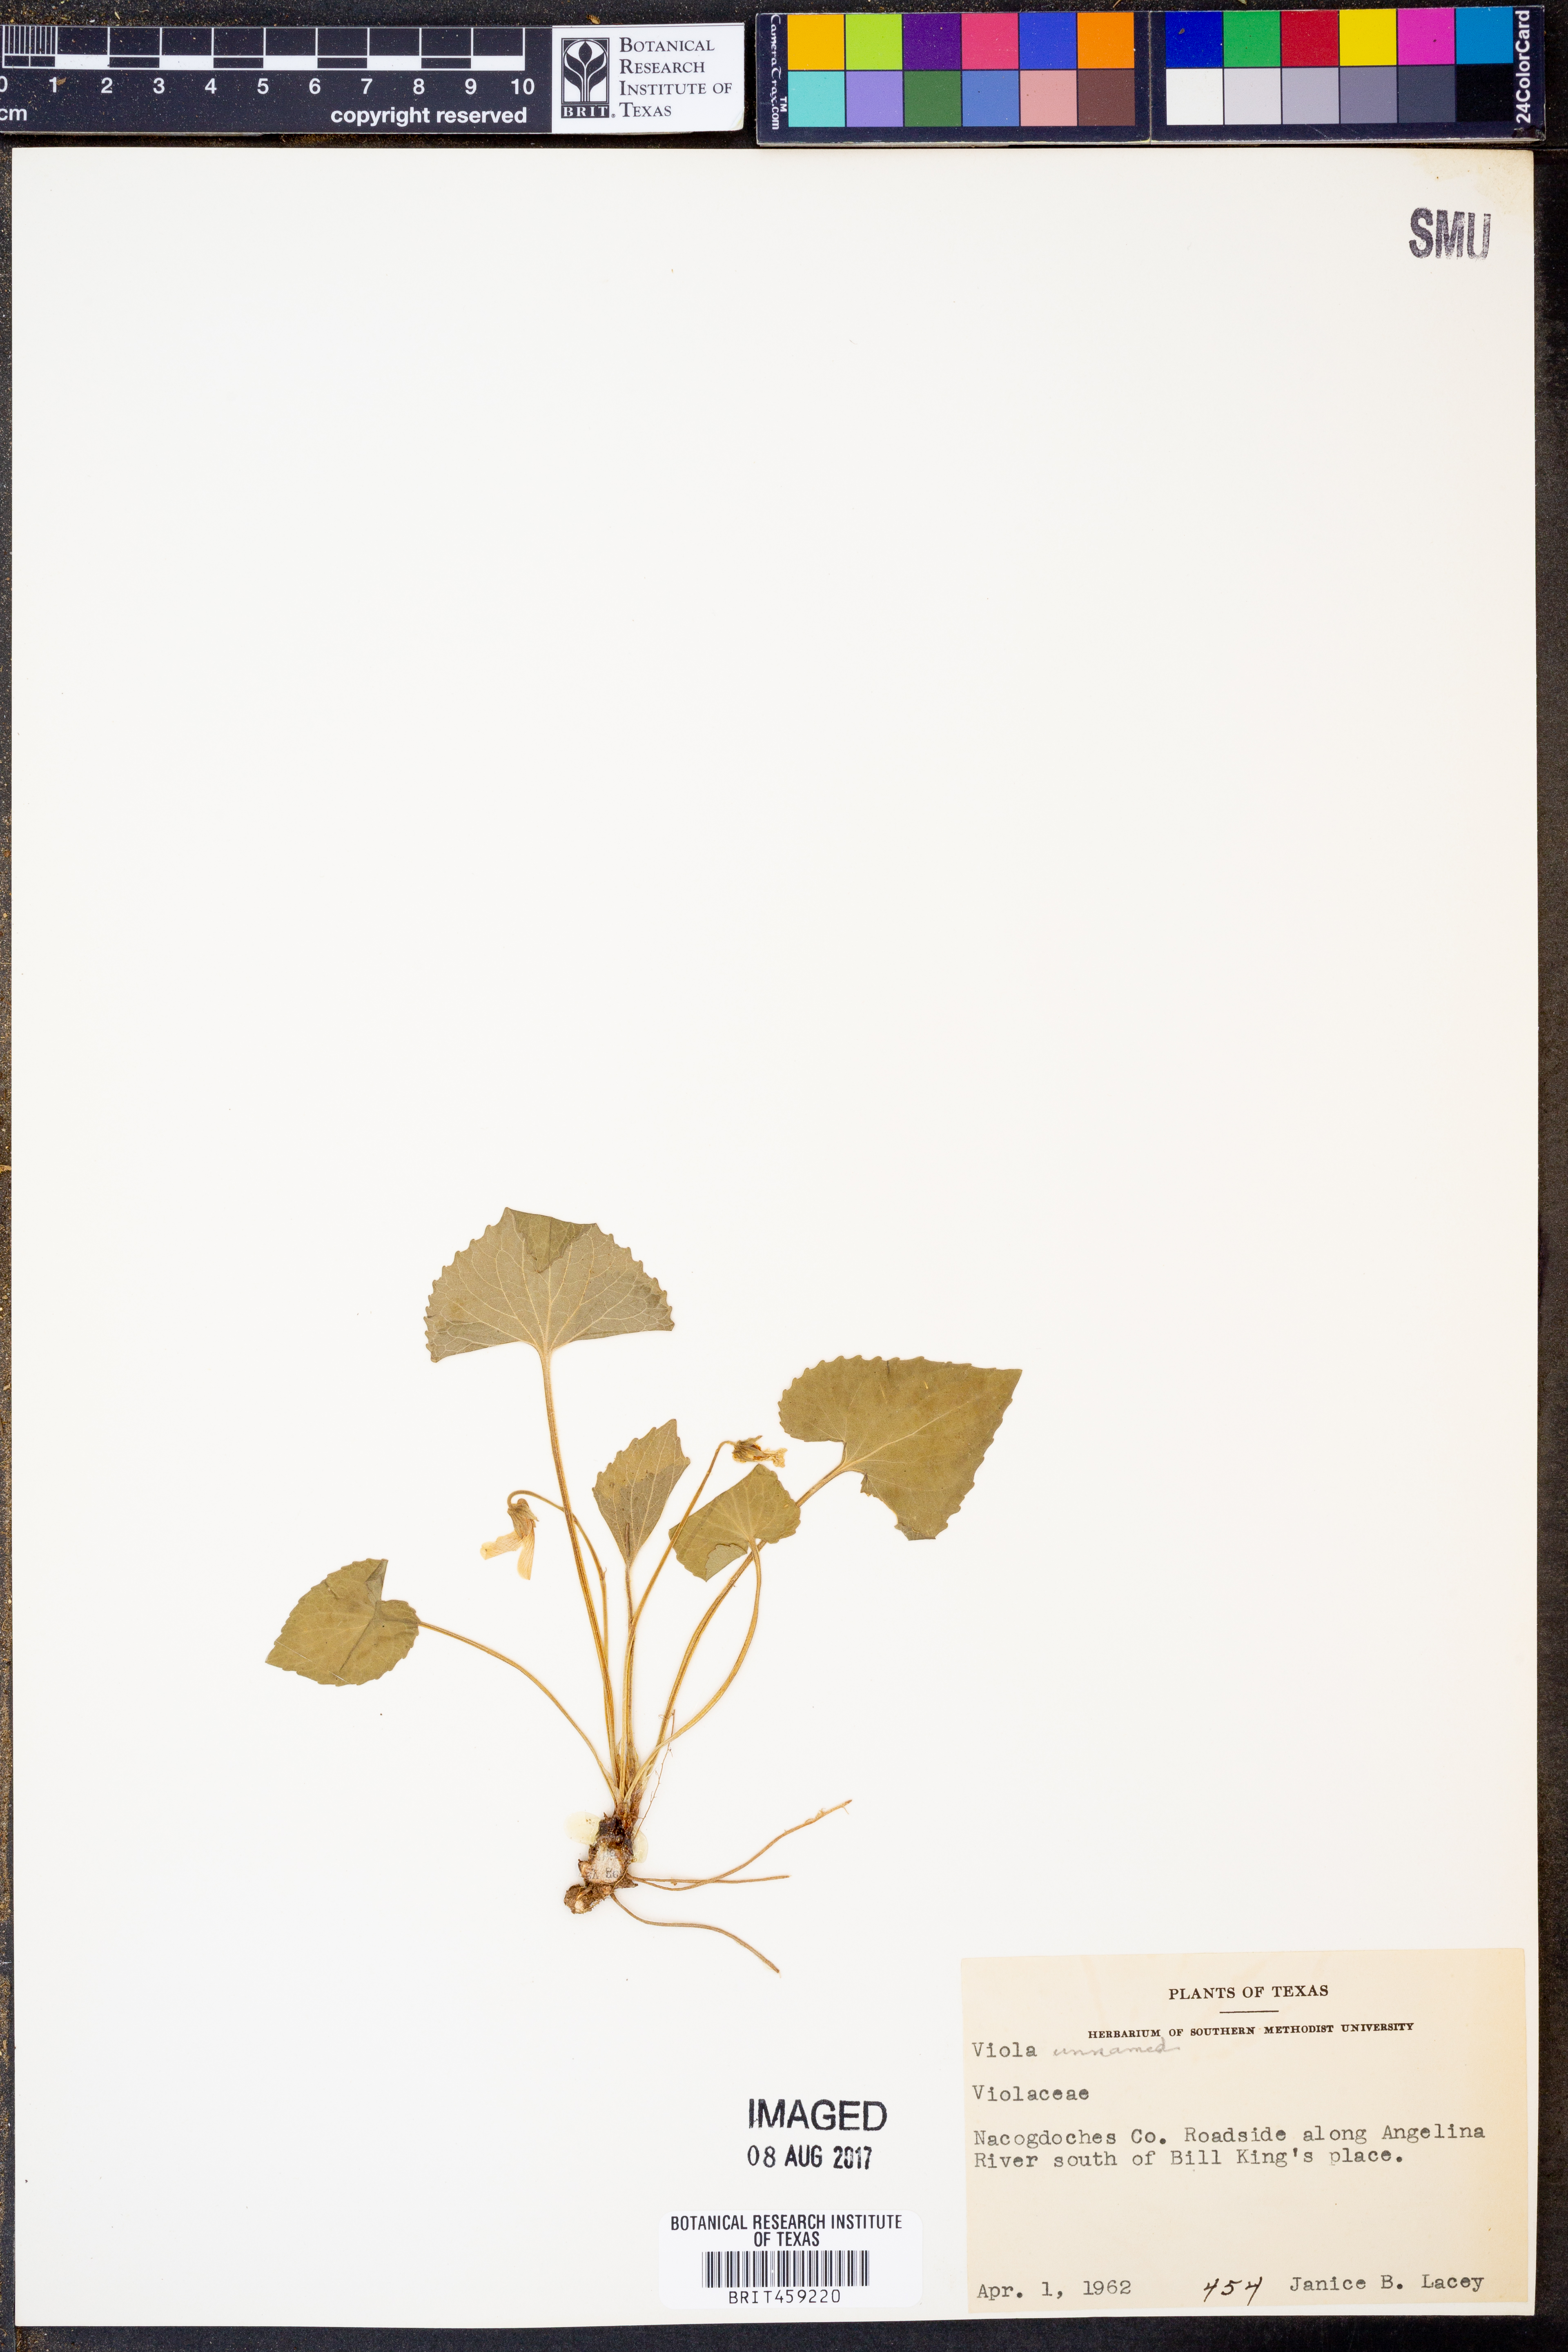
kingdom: Plantae
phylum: Tracheophyta
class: Magnoliopsida
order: Malpighiales
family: Violaceae
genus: Viola
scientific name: Viola
